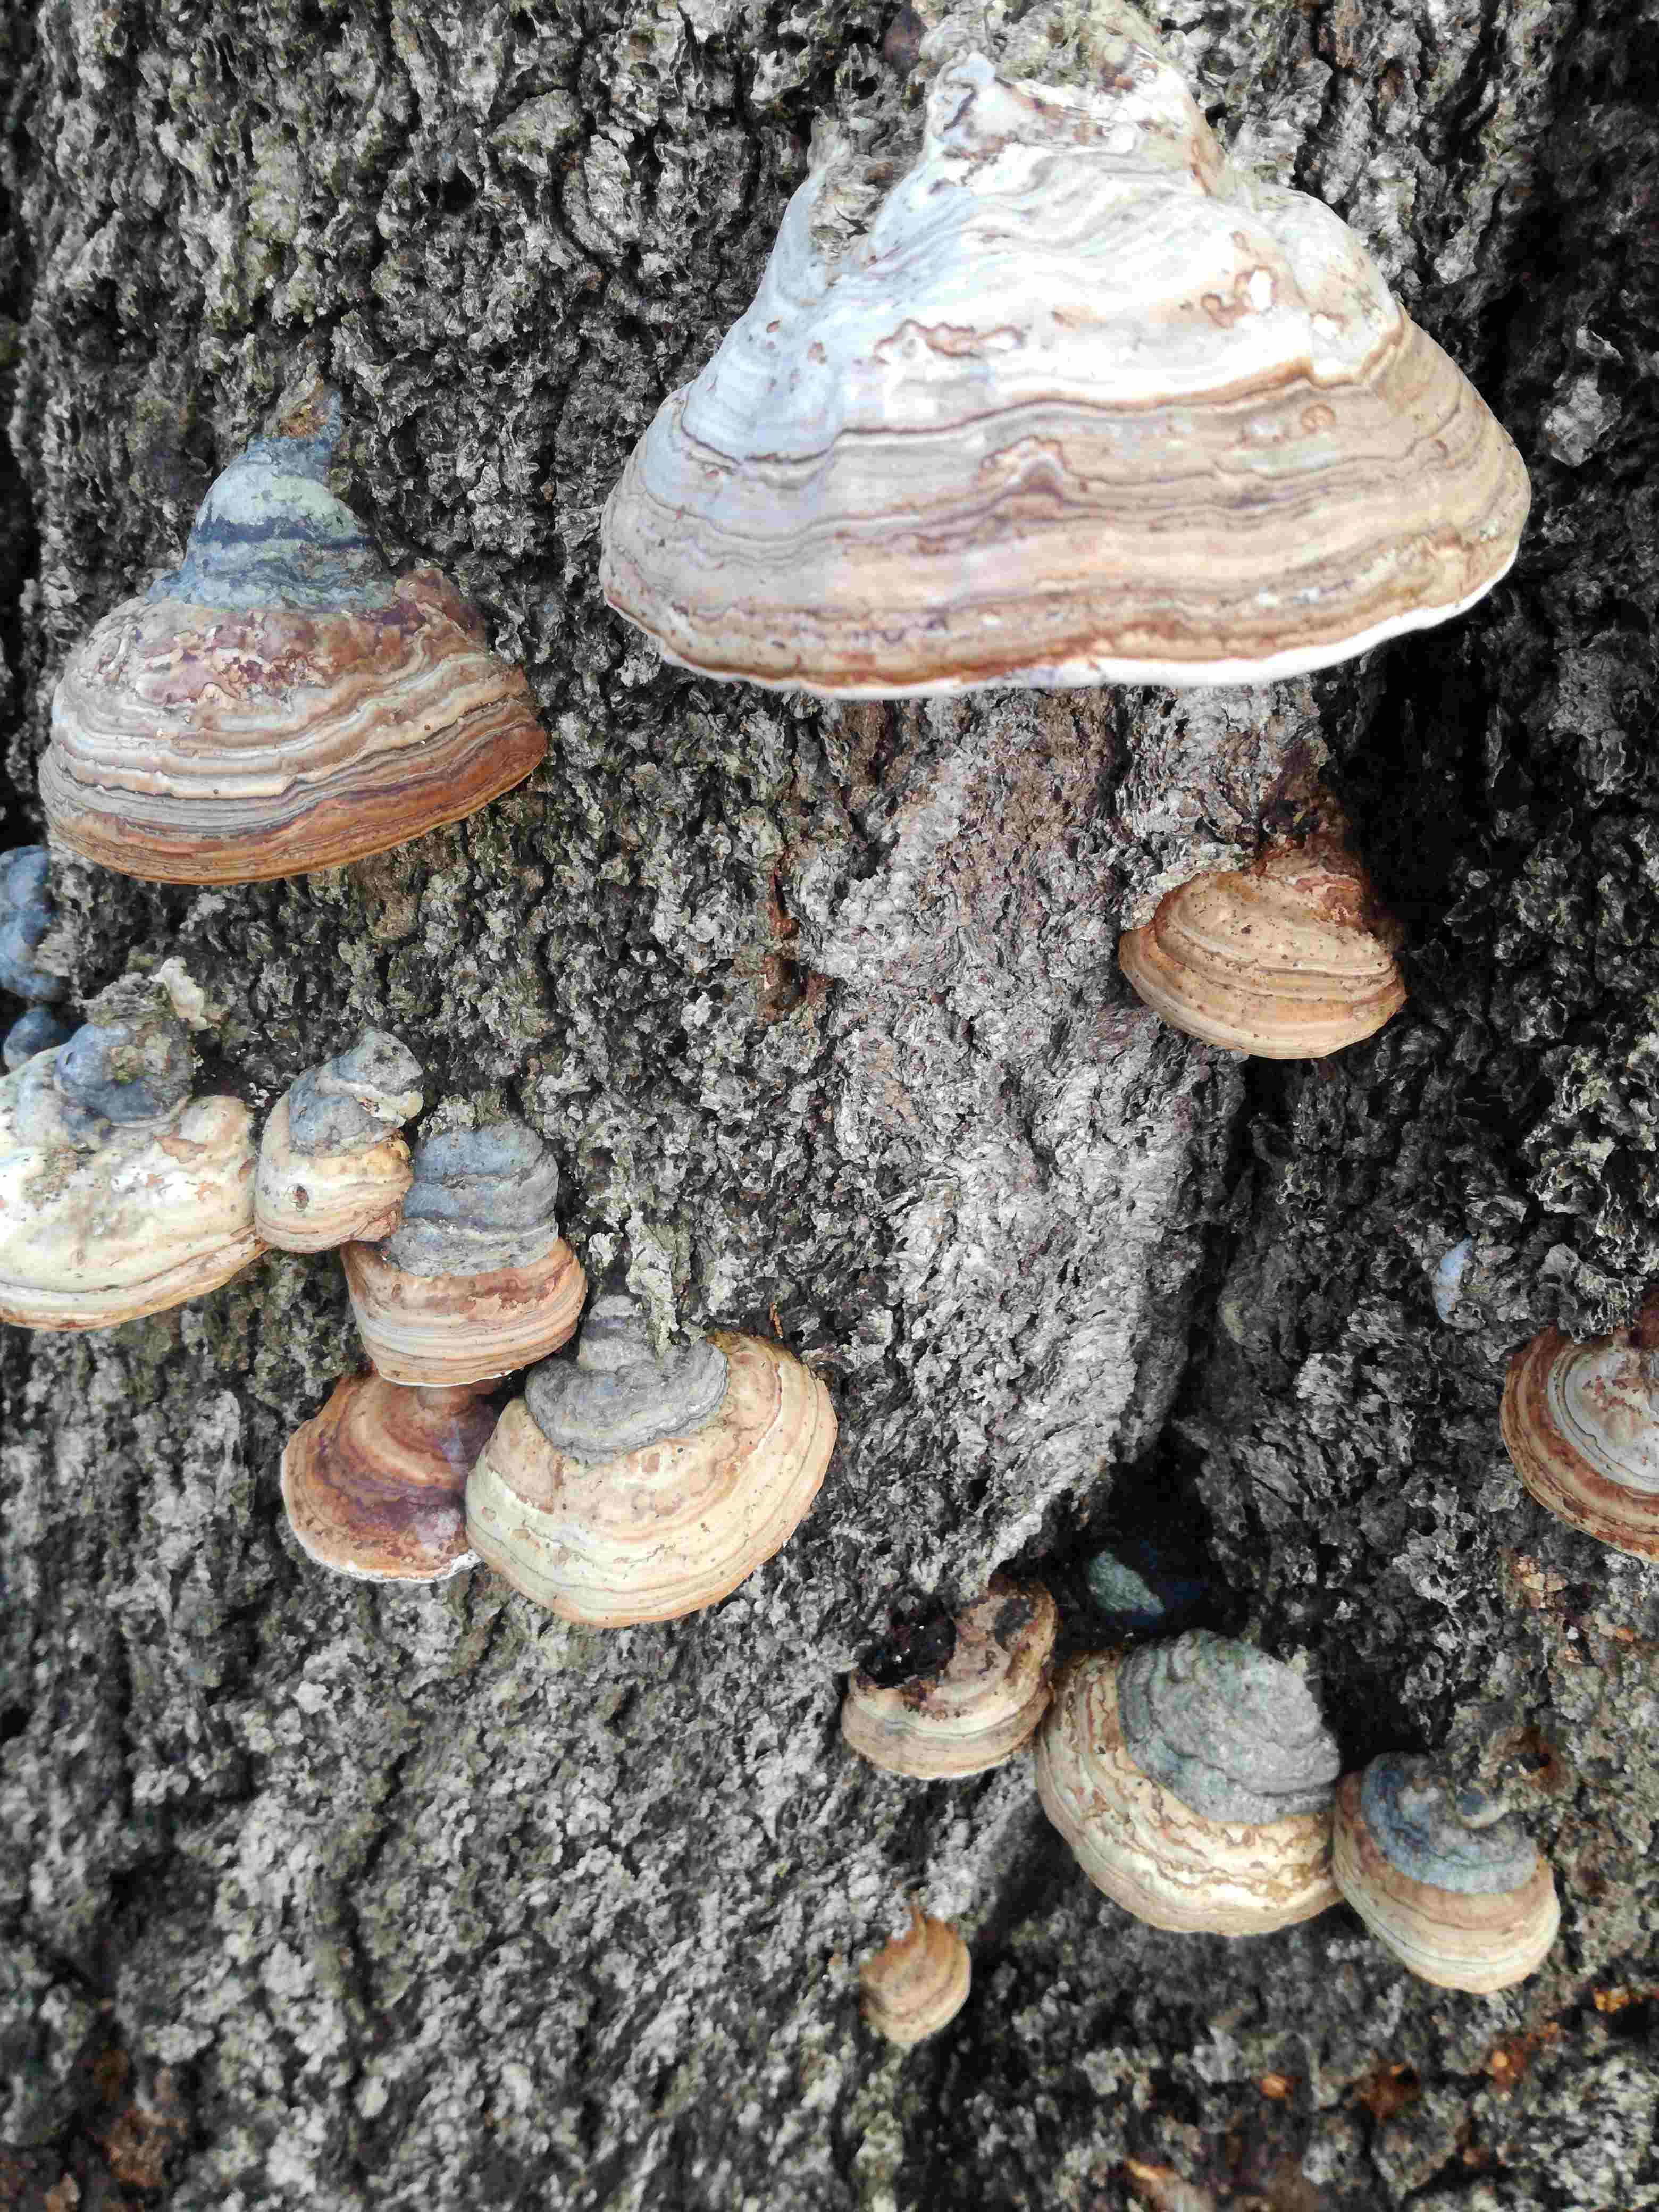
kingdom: Fungi
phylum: Basidiomycota
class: Agaricomycetes
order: Polyporales
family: Polyporaceae
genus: Fomes
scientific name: Fomes fomentarius
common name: tøndersvamp
